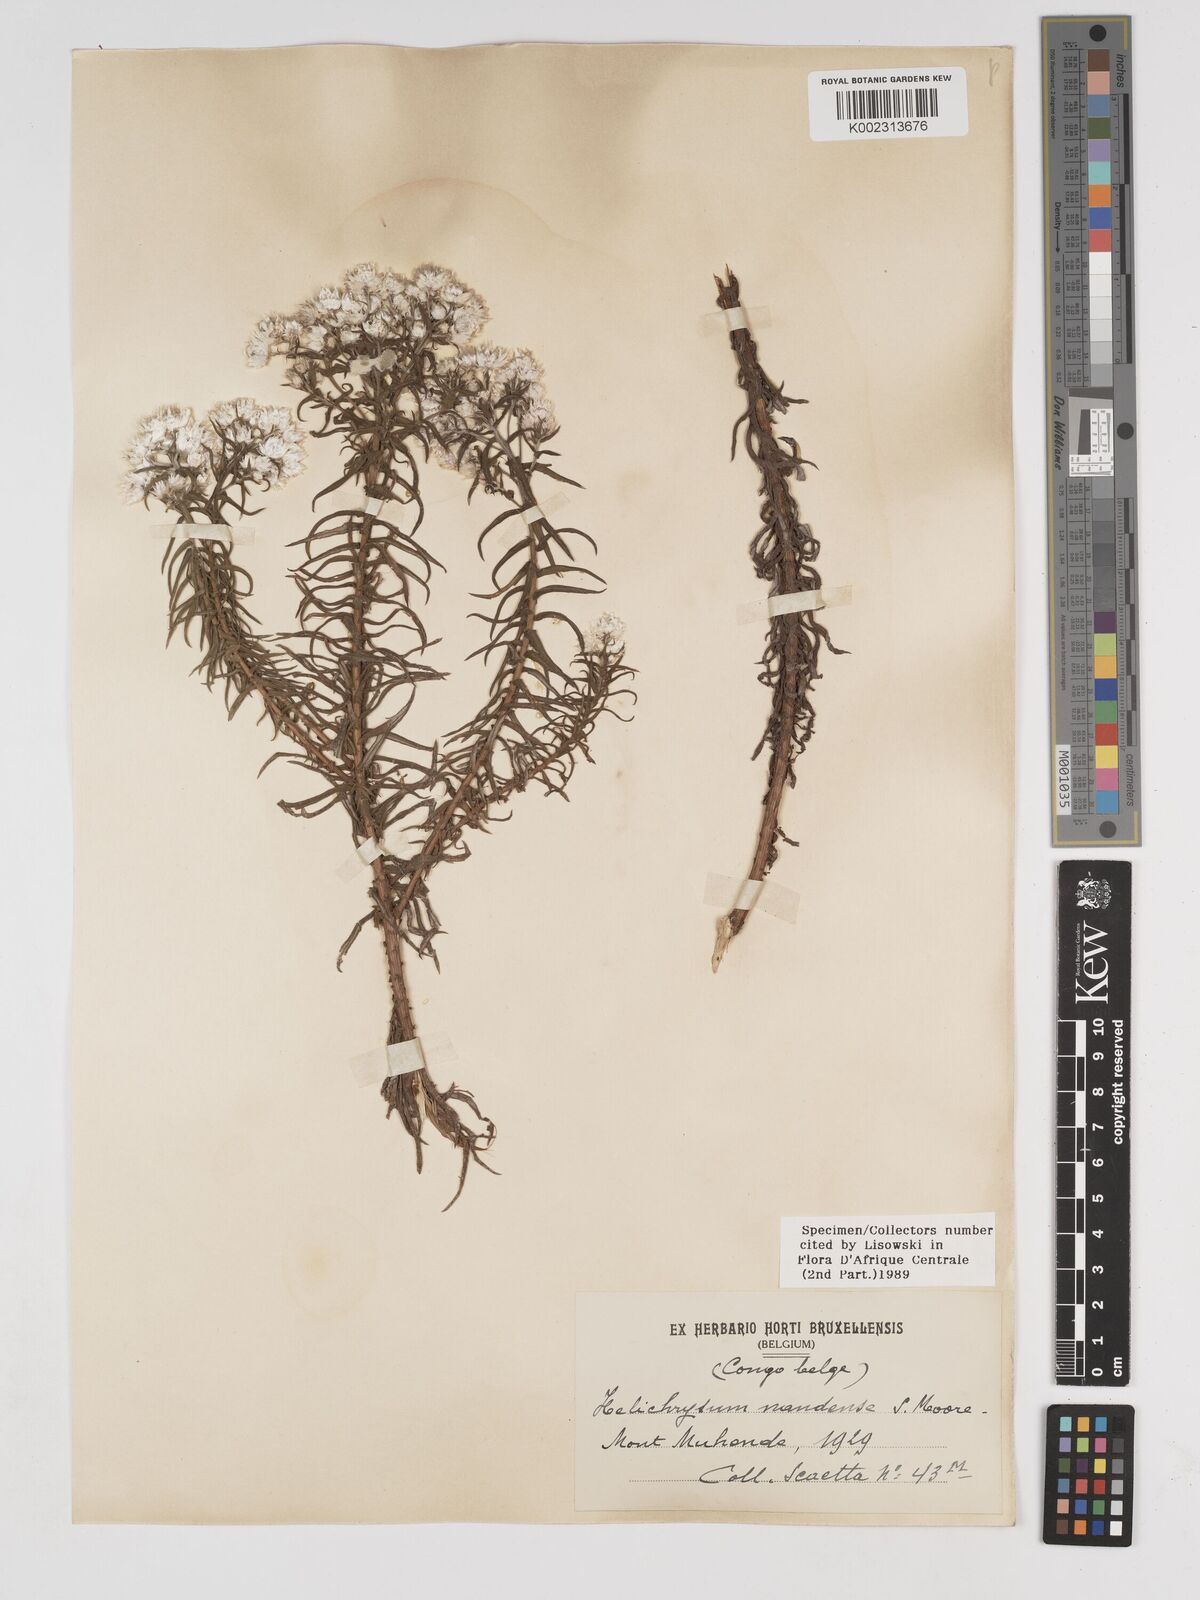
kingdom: Plantae
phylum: Tracheophyta
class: Magnoliopsida
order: Asterales
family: Asteraceae
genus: Helichrysum
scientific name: Helichrysum argyranthum
